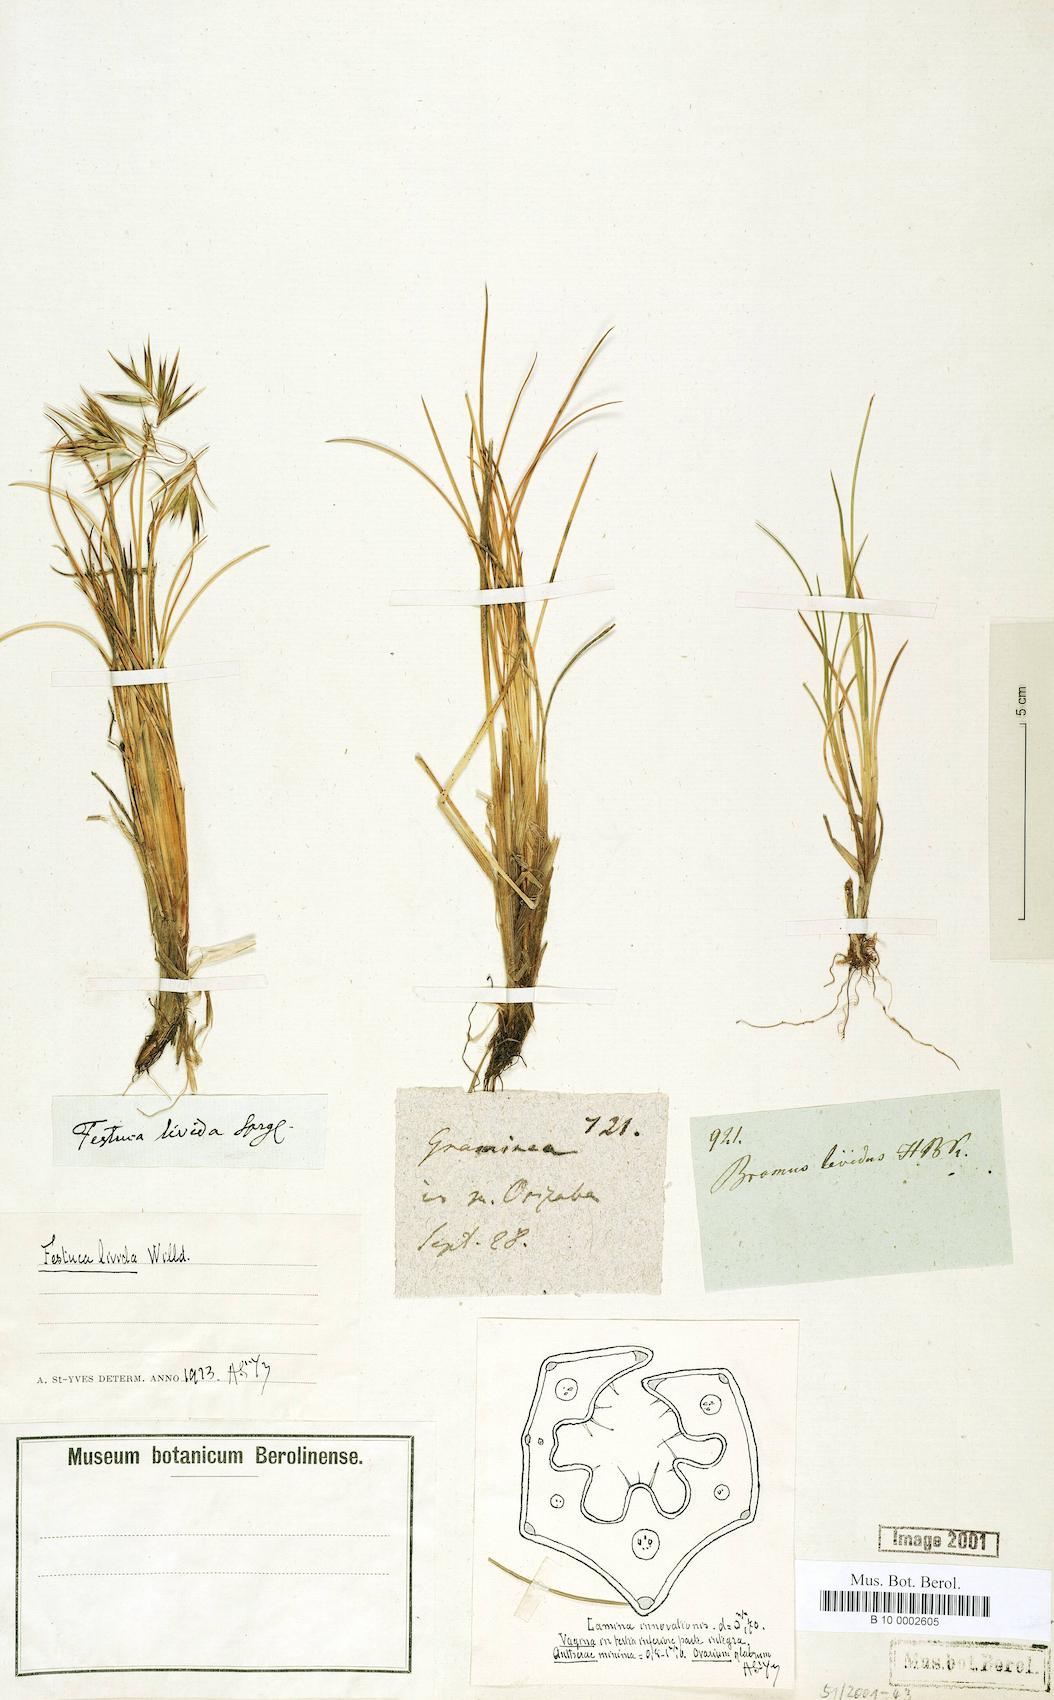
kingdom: Plantae
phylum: Tracheophyta
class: Liliopsida
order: Poales
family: Poaceae
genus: Festuca
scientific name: Festuca livida
